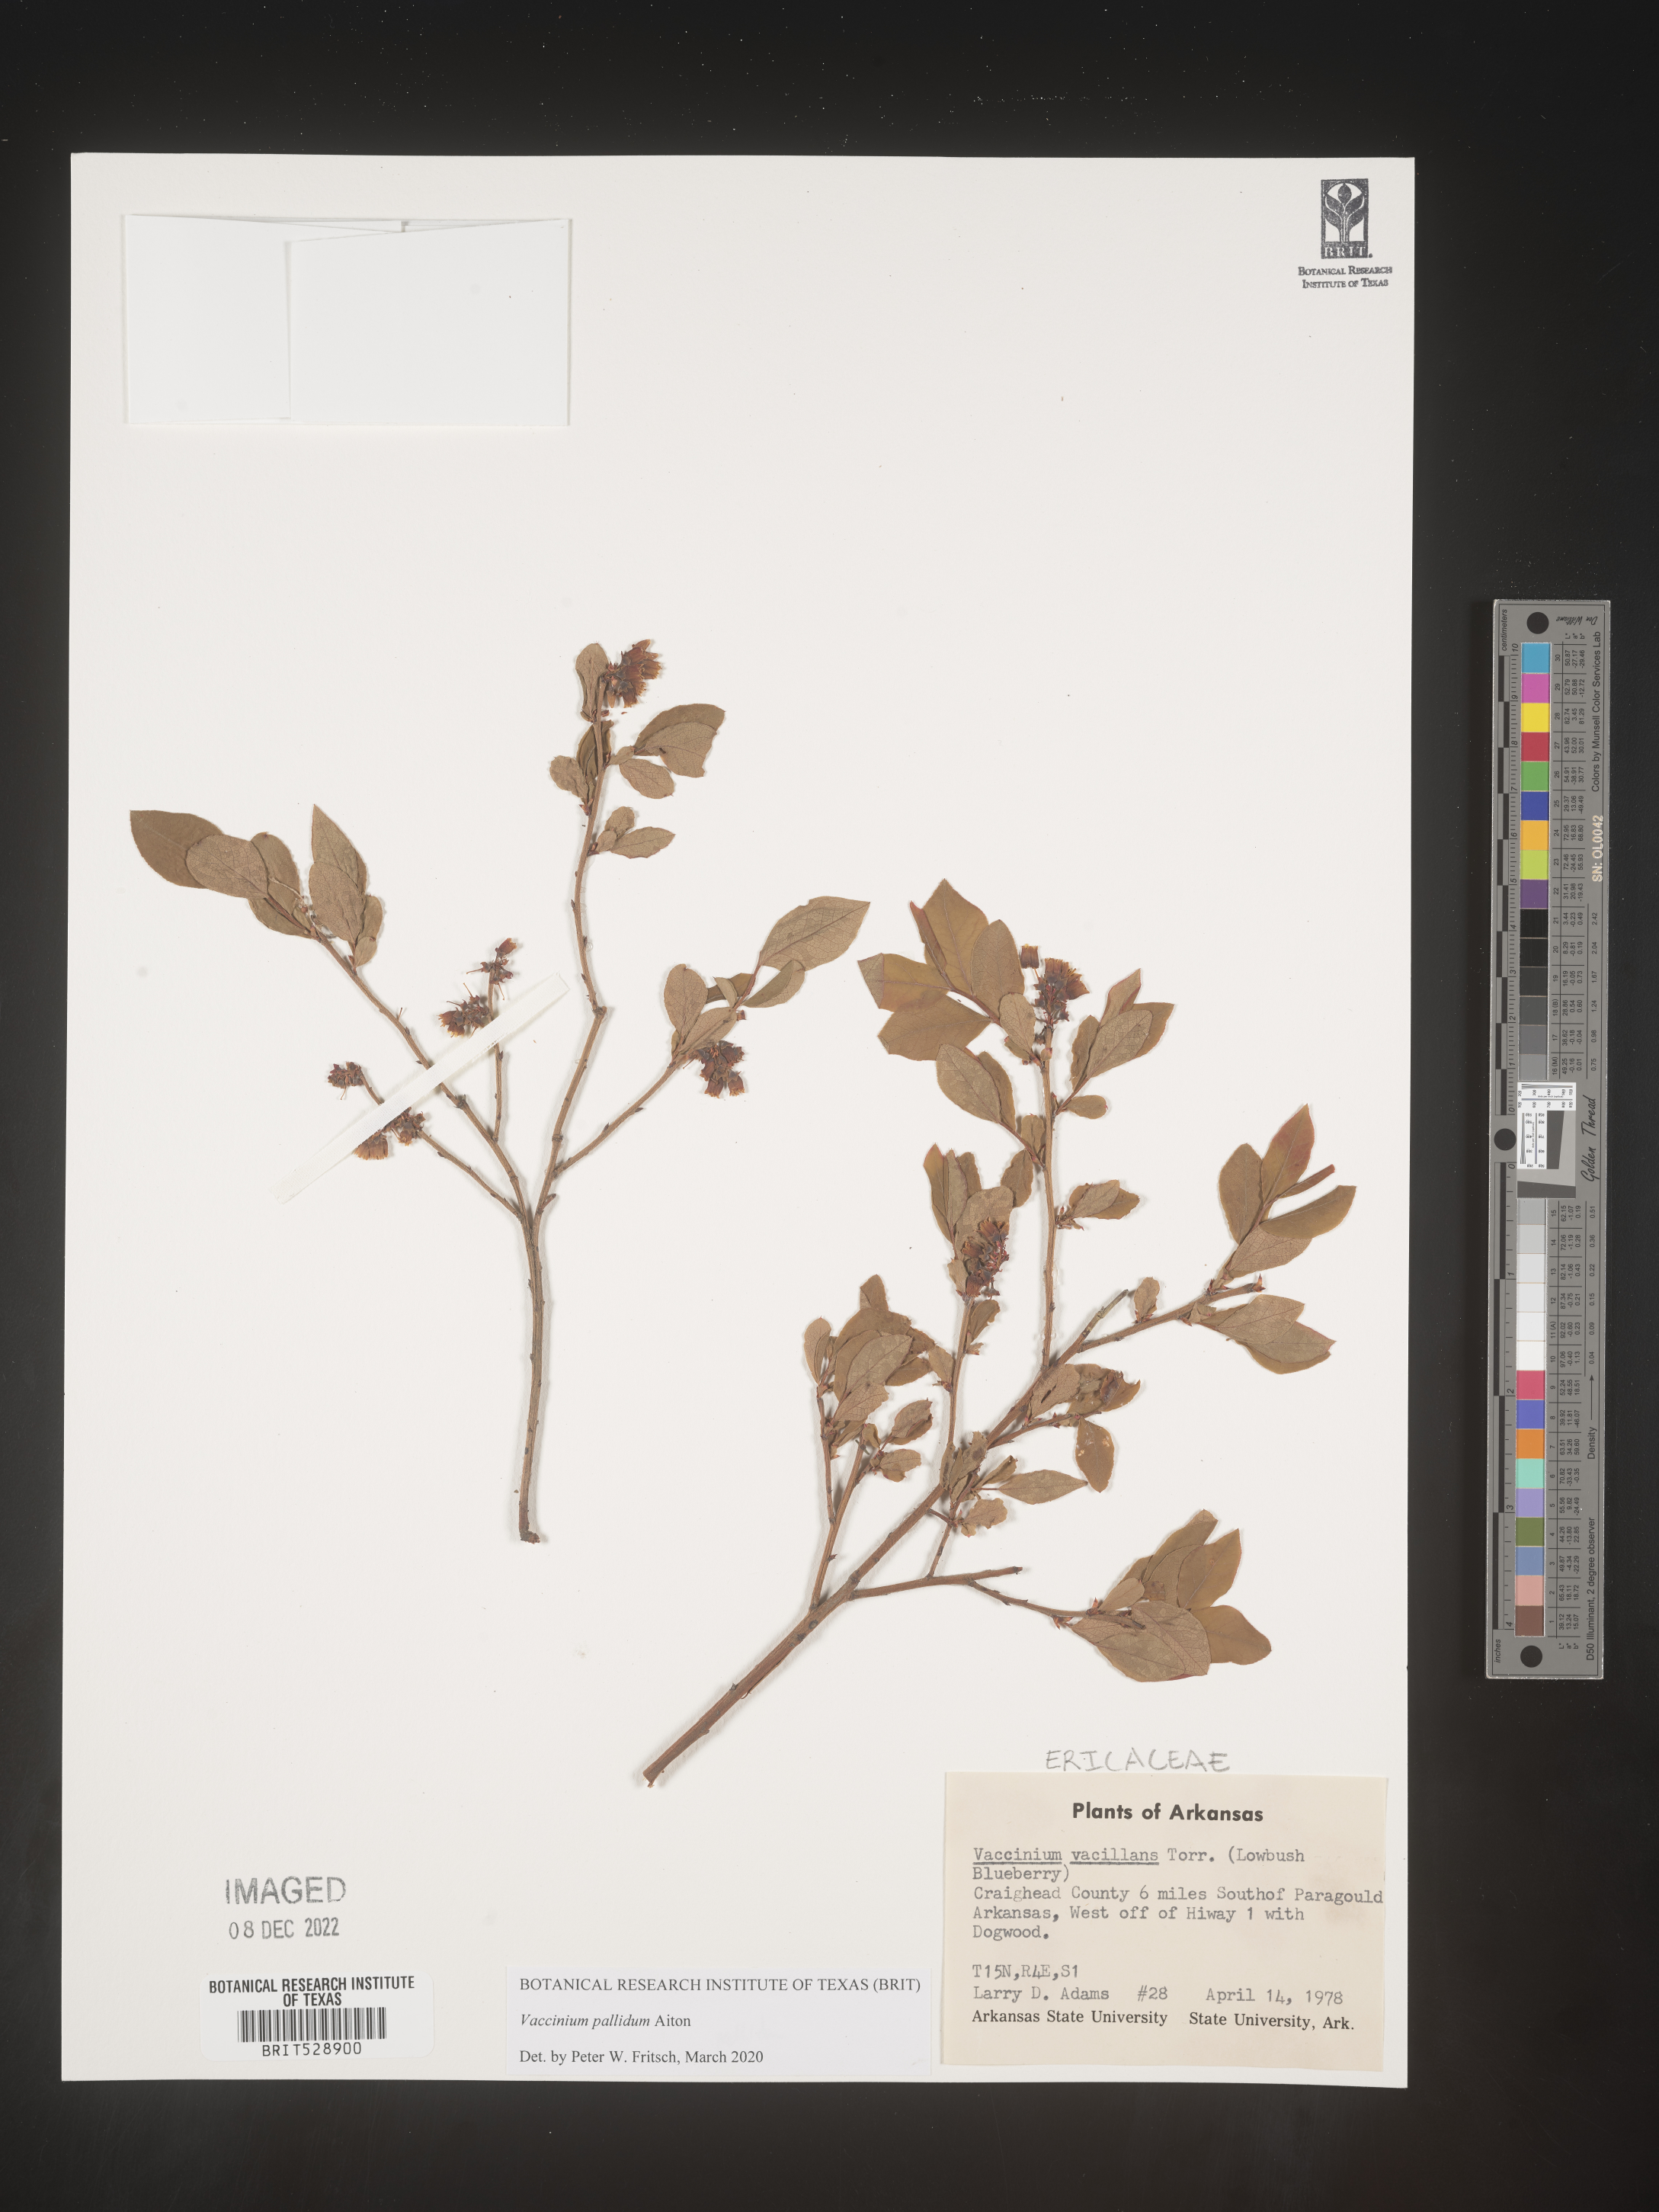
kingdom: Plantae
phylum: Tracheophyta
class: Magnoliopsida
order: Ericales
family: Ericaceae
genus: Vaccinium
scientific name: Vaccinium pallidum
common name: Blue ridge blueberry
